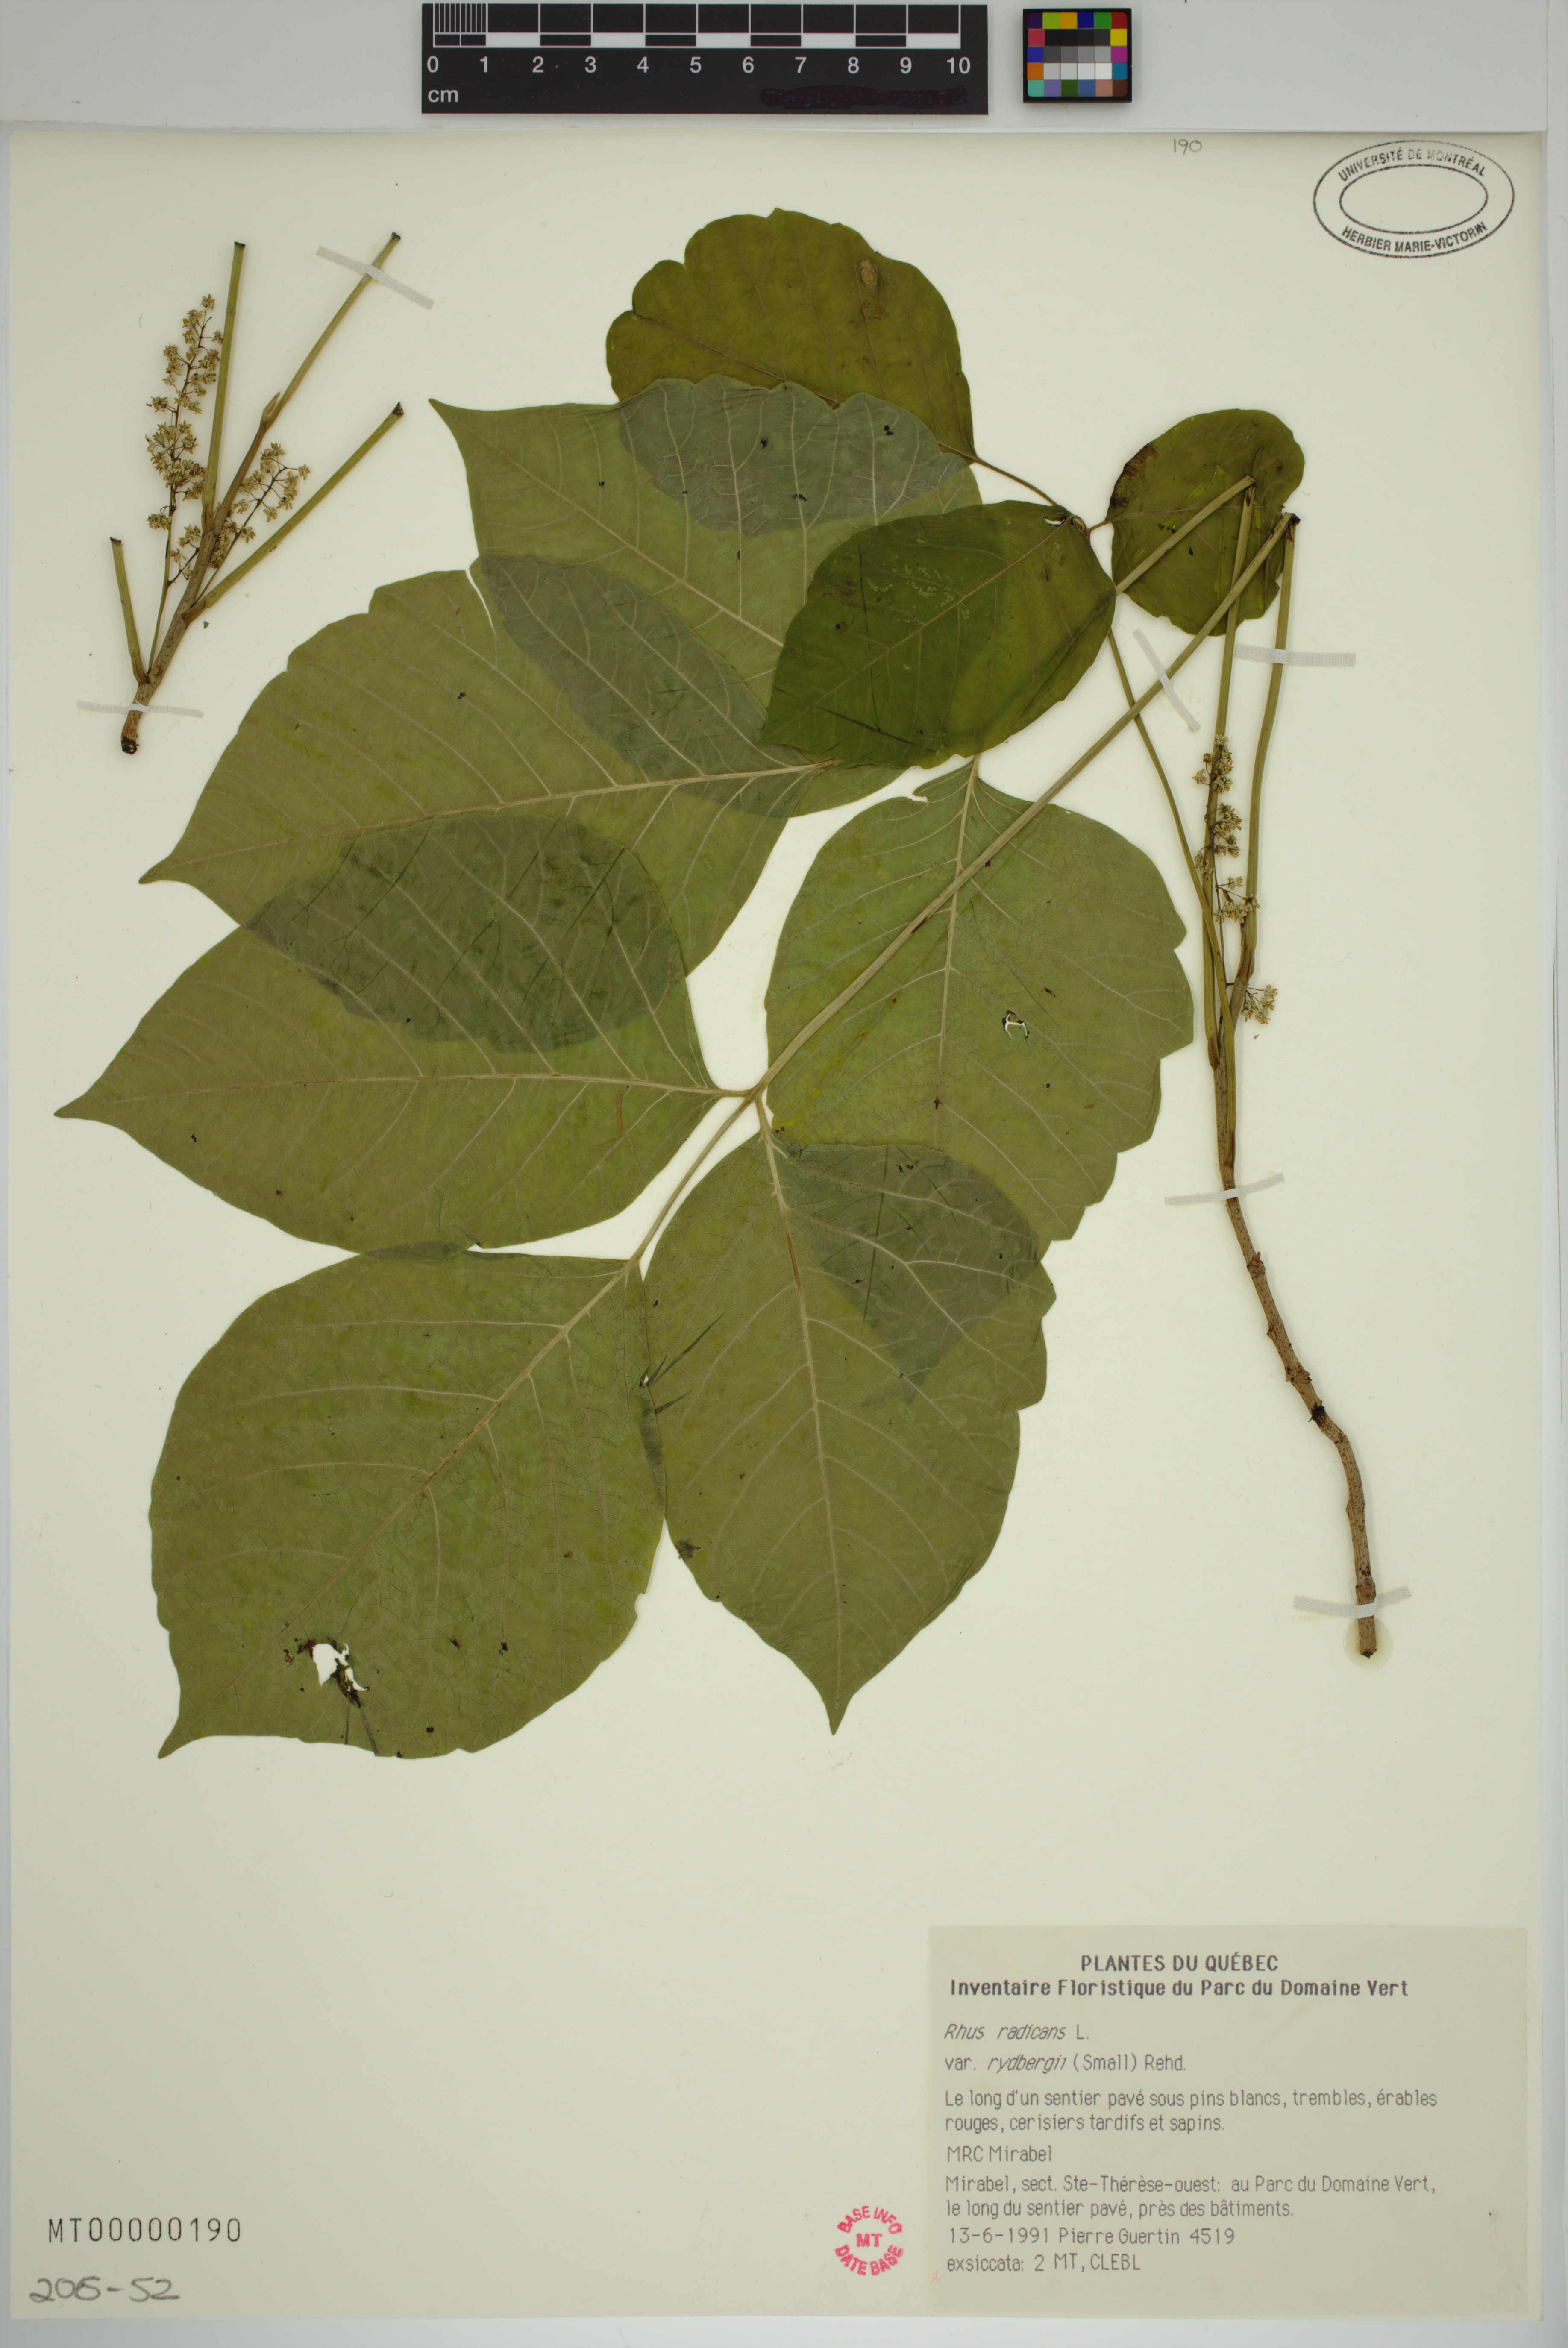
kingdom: Plantae
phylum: Tracheophyta
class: Magnoliopsida
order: Sapindales
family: Anacardiaceae
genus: Toxicodendron
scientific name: Toxicodendron rydbergii
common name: Rydberg's poison-ivy
